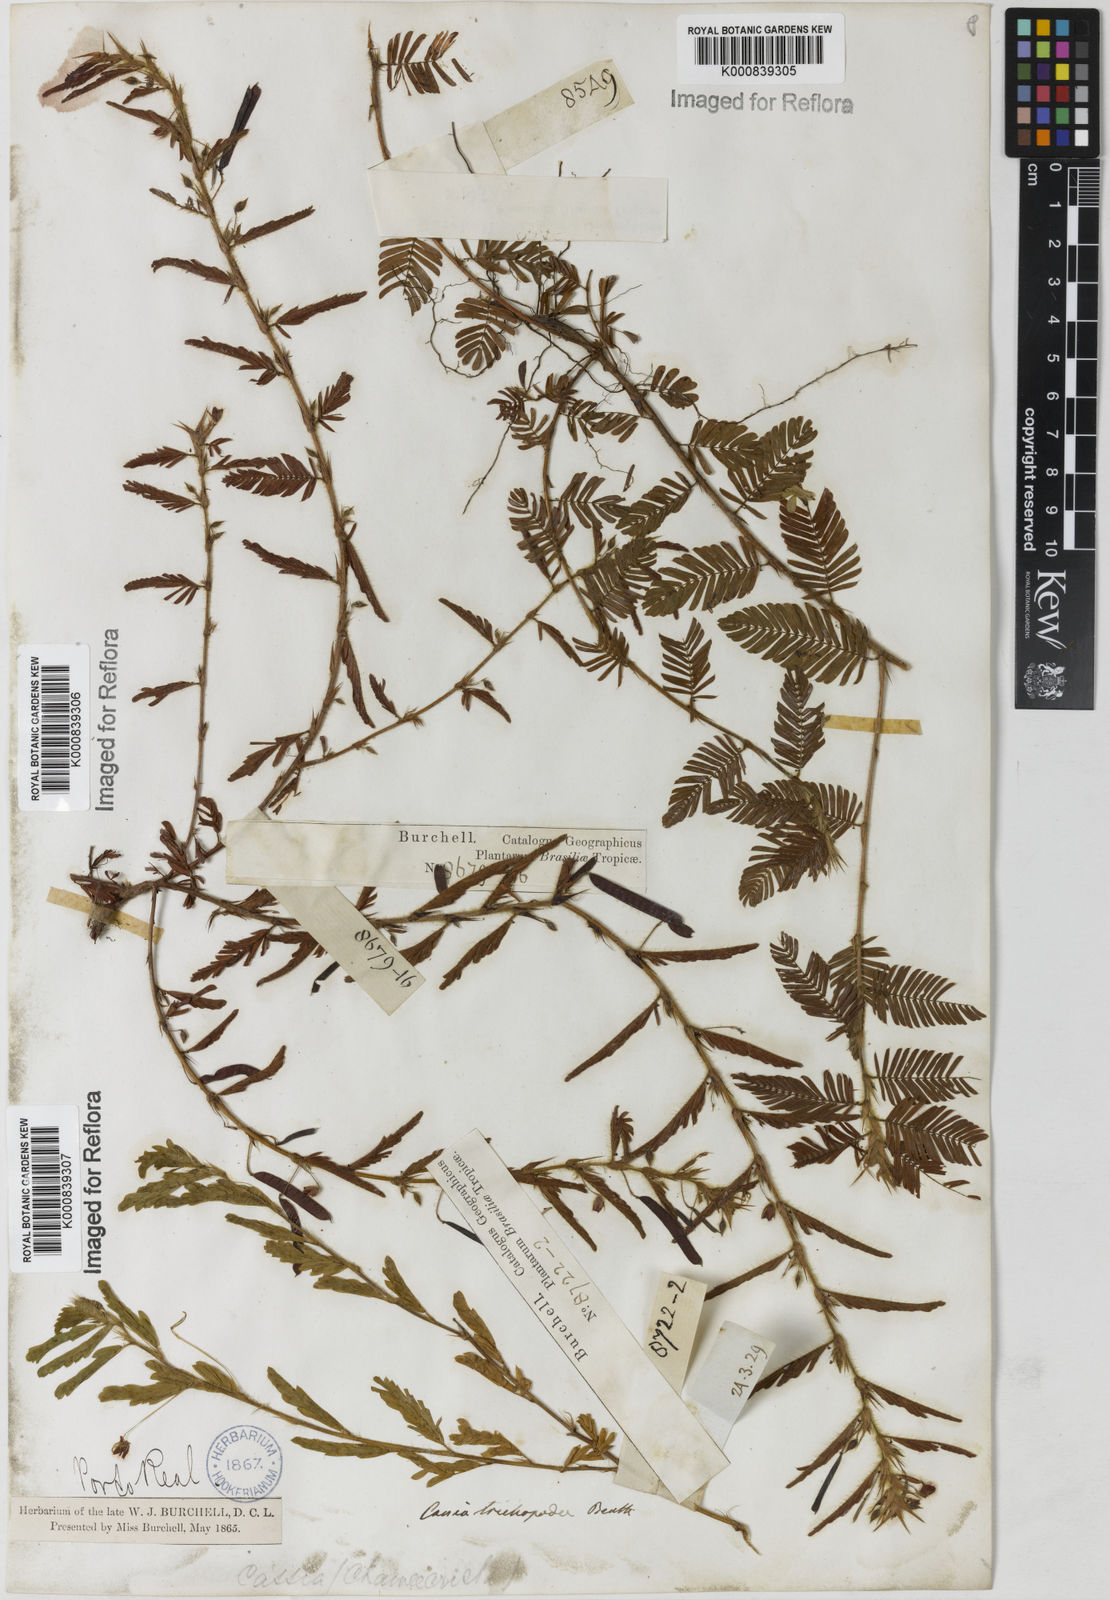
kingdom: Plantae
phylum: Tracheophyta
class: Magnoliopsida
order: Fabales
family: Fabaceae
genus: Chamaecrista
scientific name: Chamaecrista trichopoda
